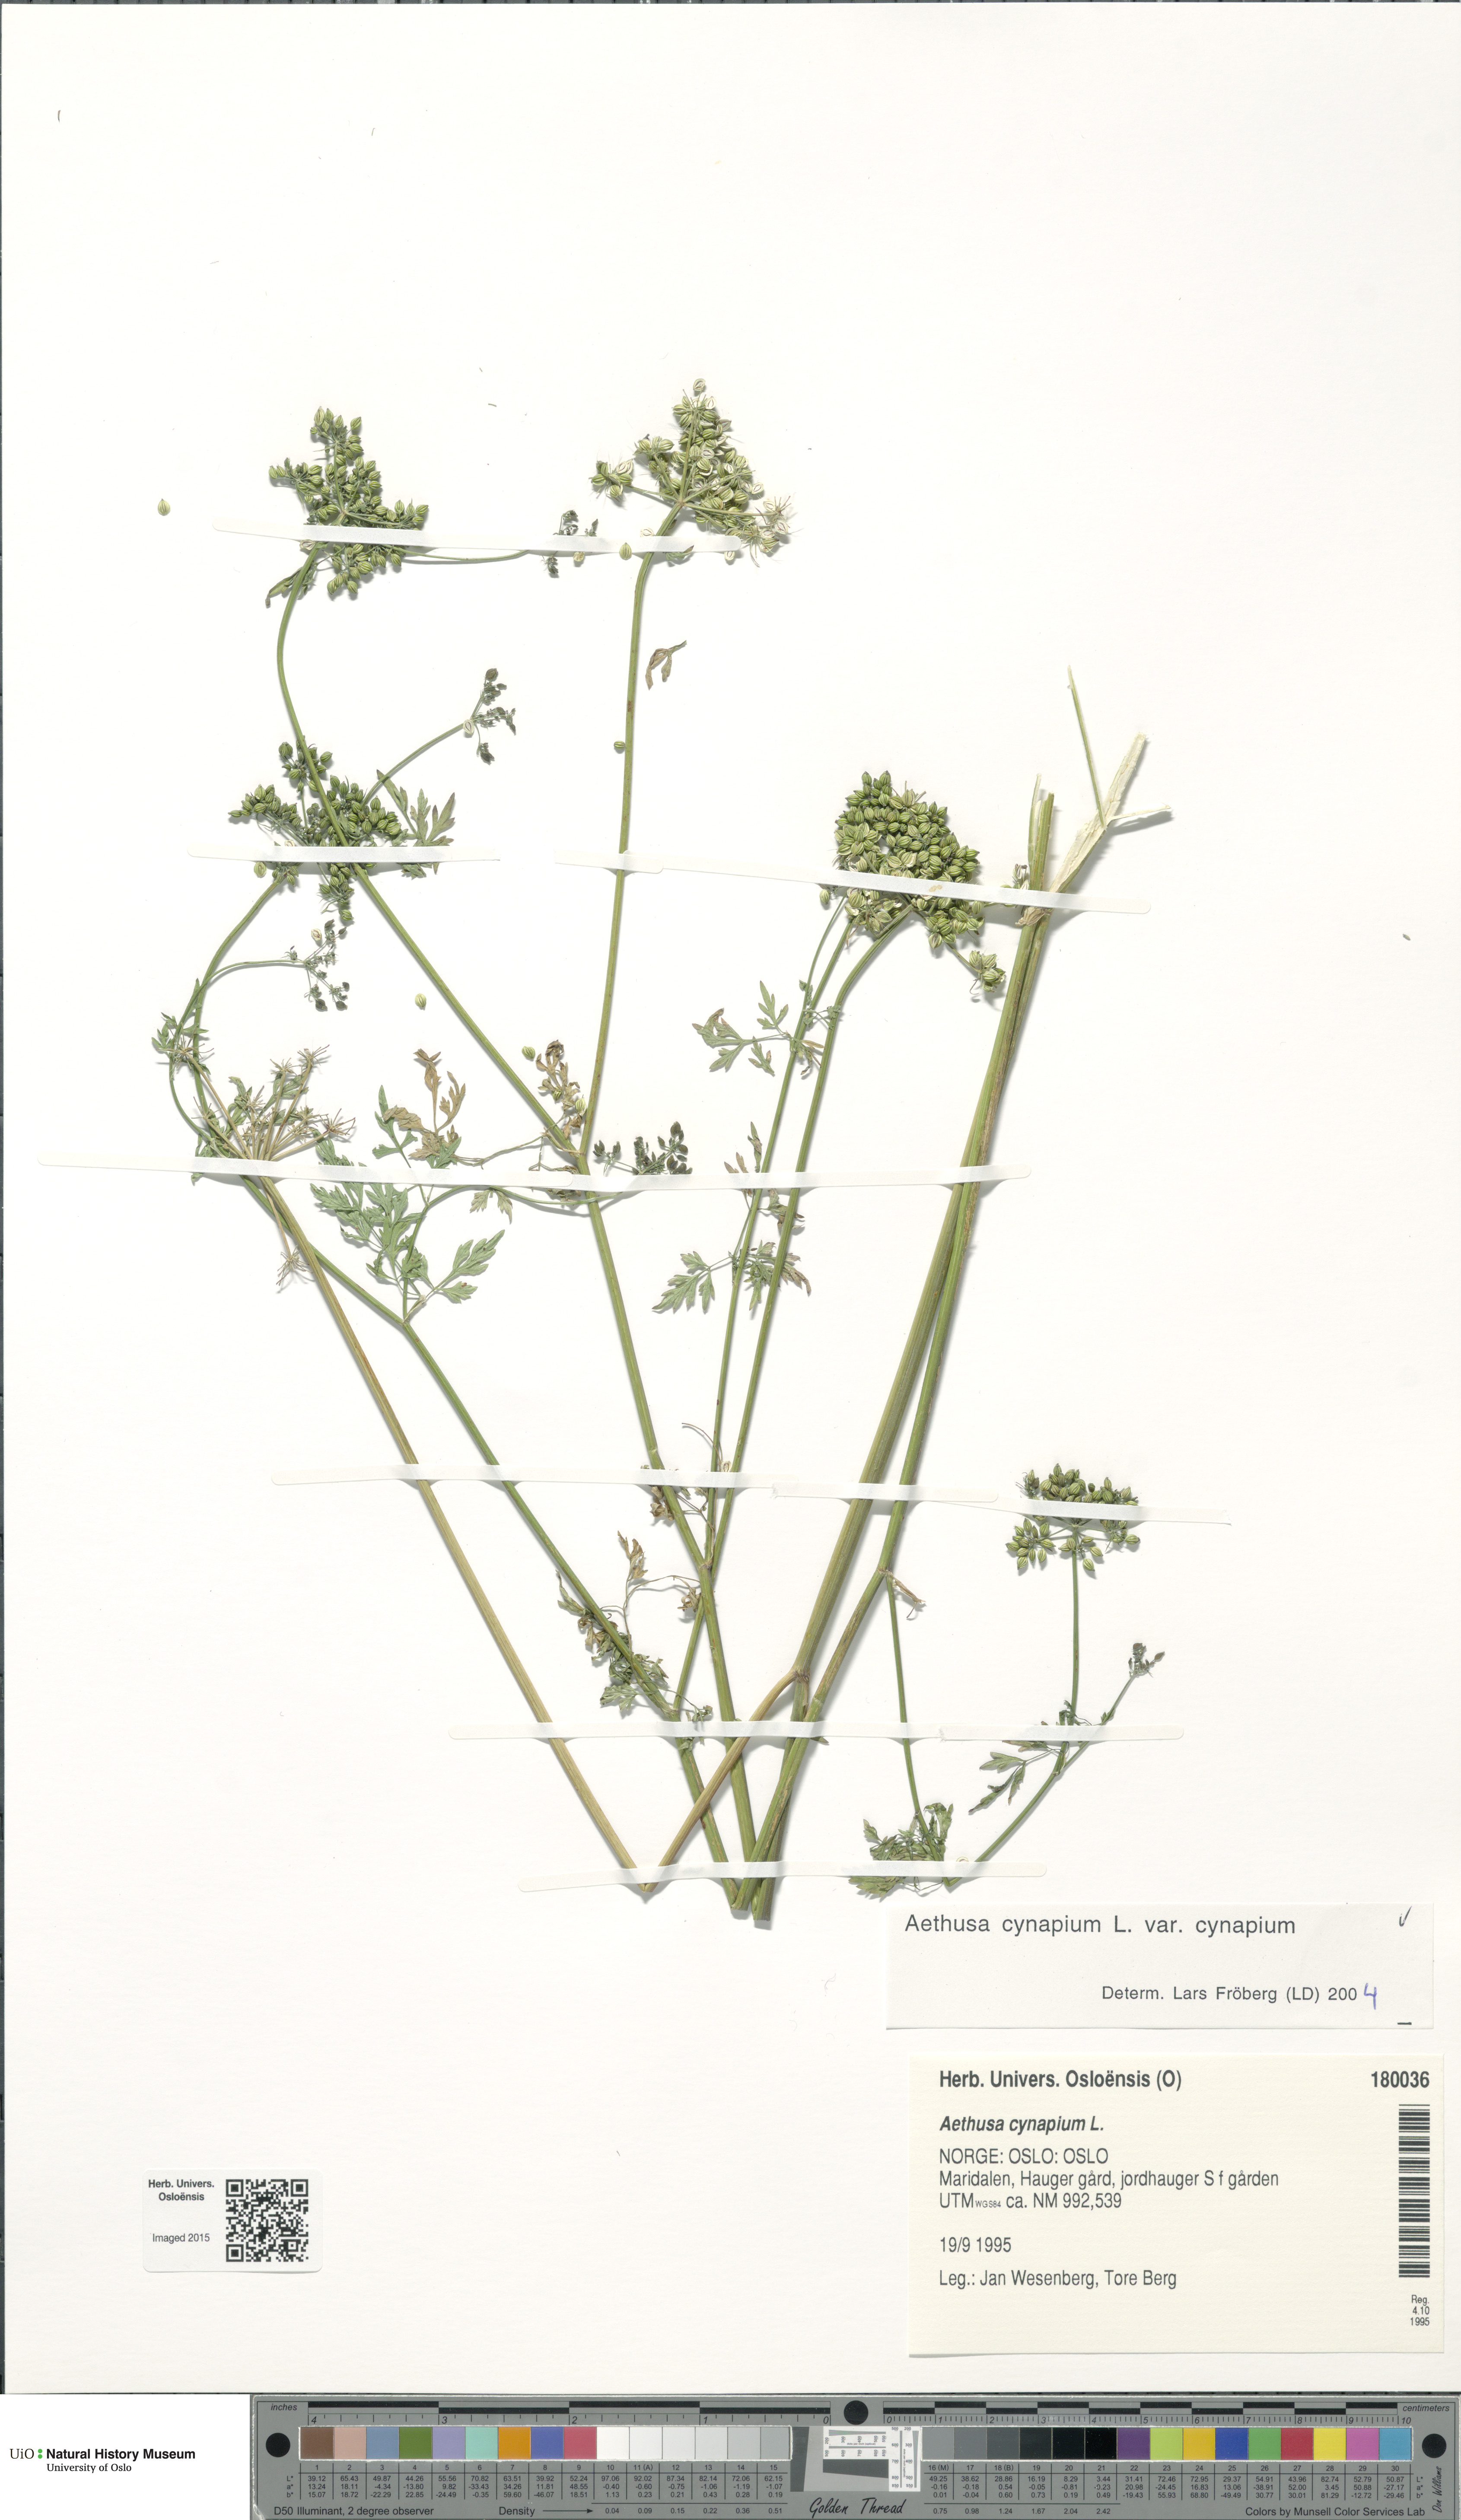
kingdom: Plantae
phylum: Tracheophyta
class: Magnoliopsida
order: Apiales
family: Apiaceae
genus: Aethusa
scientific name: Aethusa cynapium
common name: Fool's parsley
